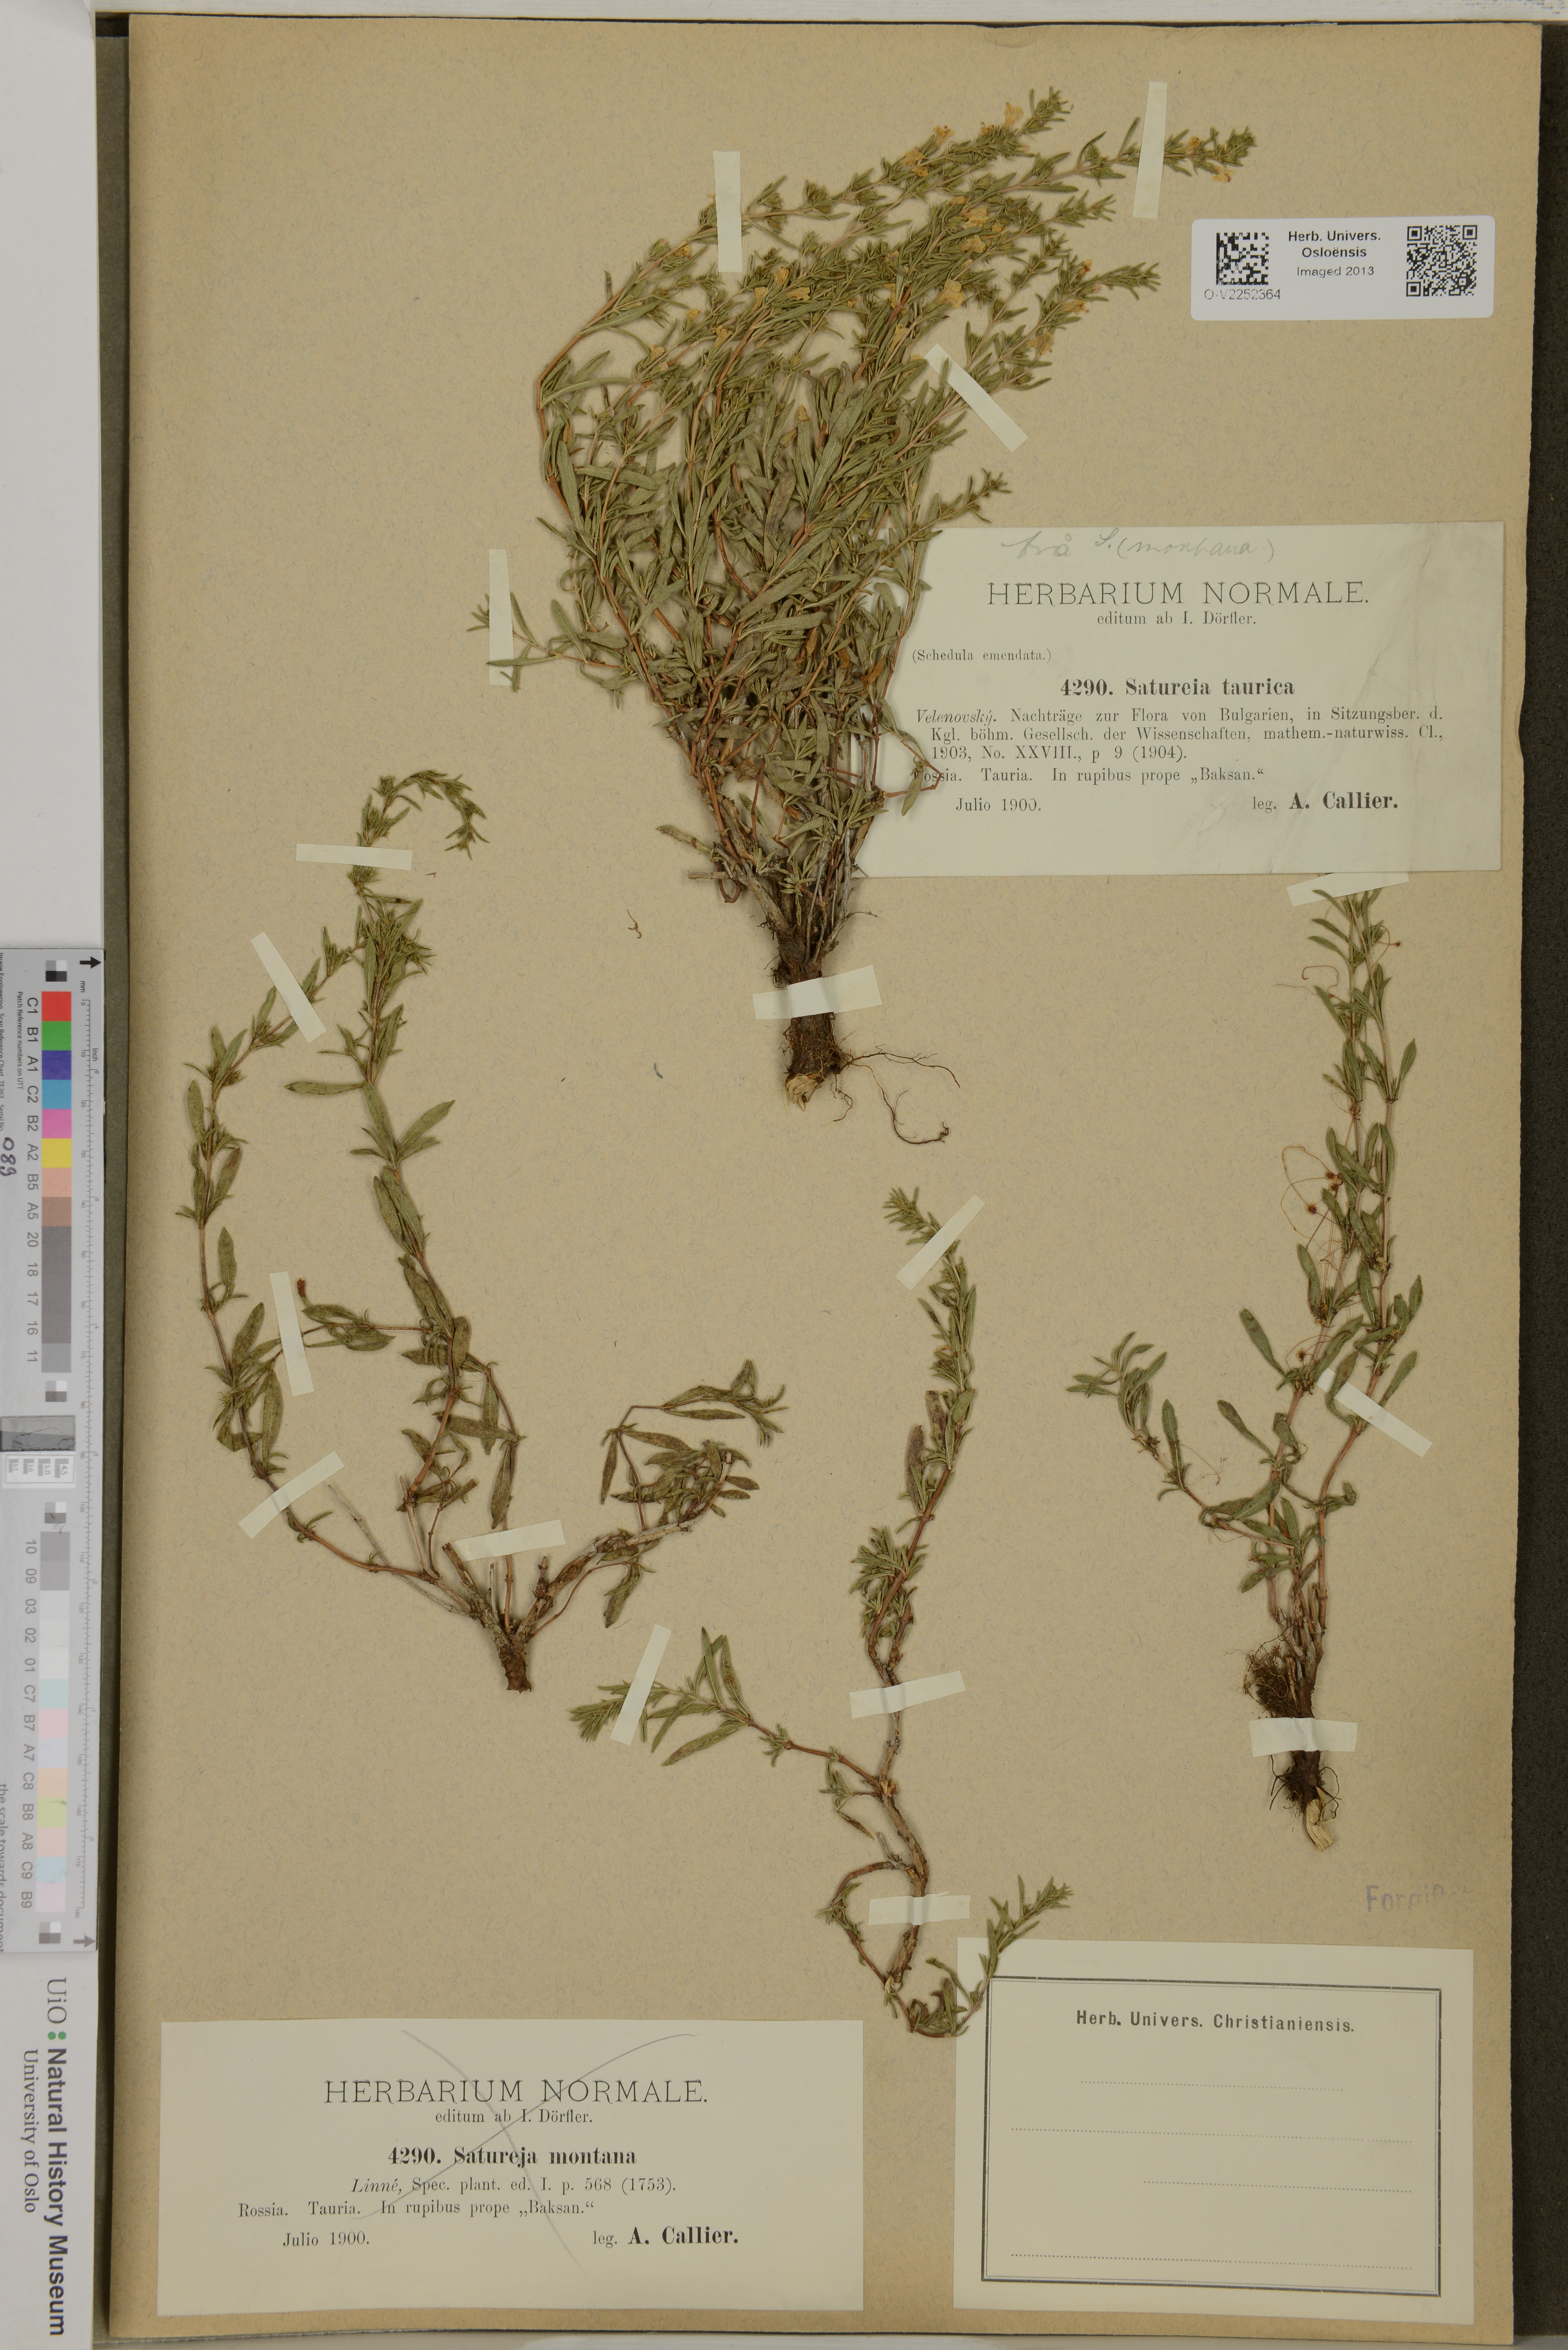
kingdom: Plantae
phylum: Tracheophyta
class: Magnoliopsida
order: Lamiales
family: Lamiaceae
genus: Satureja
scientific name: Satureja taurica
